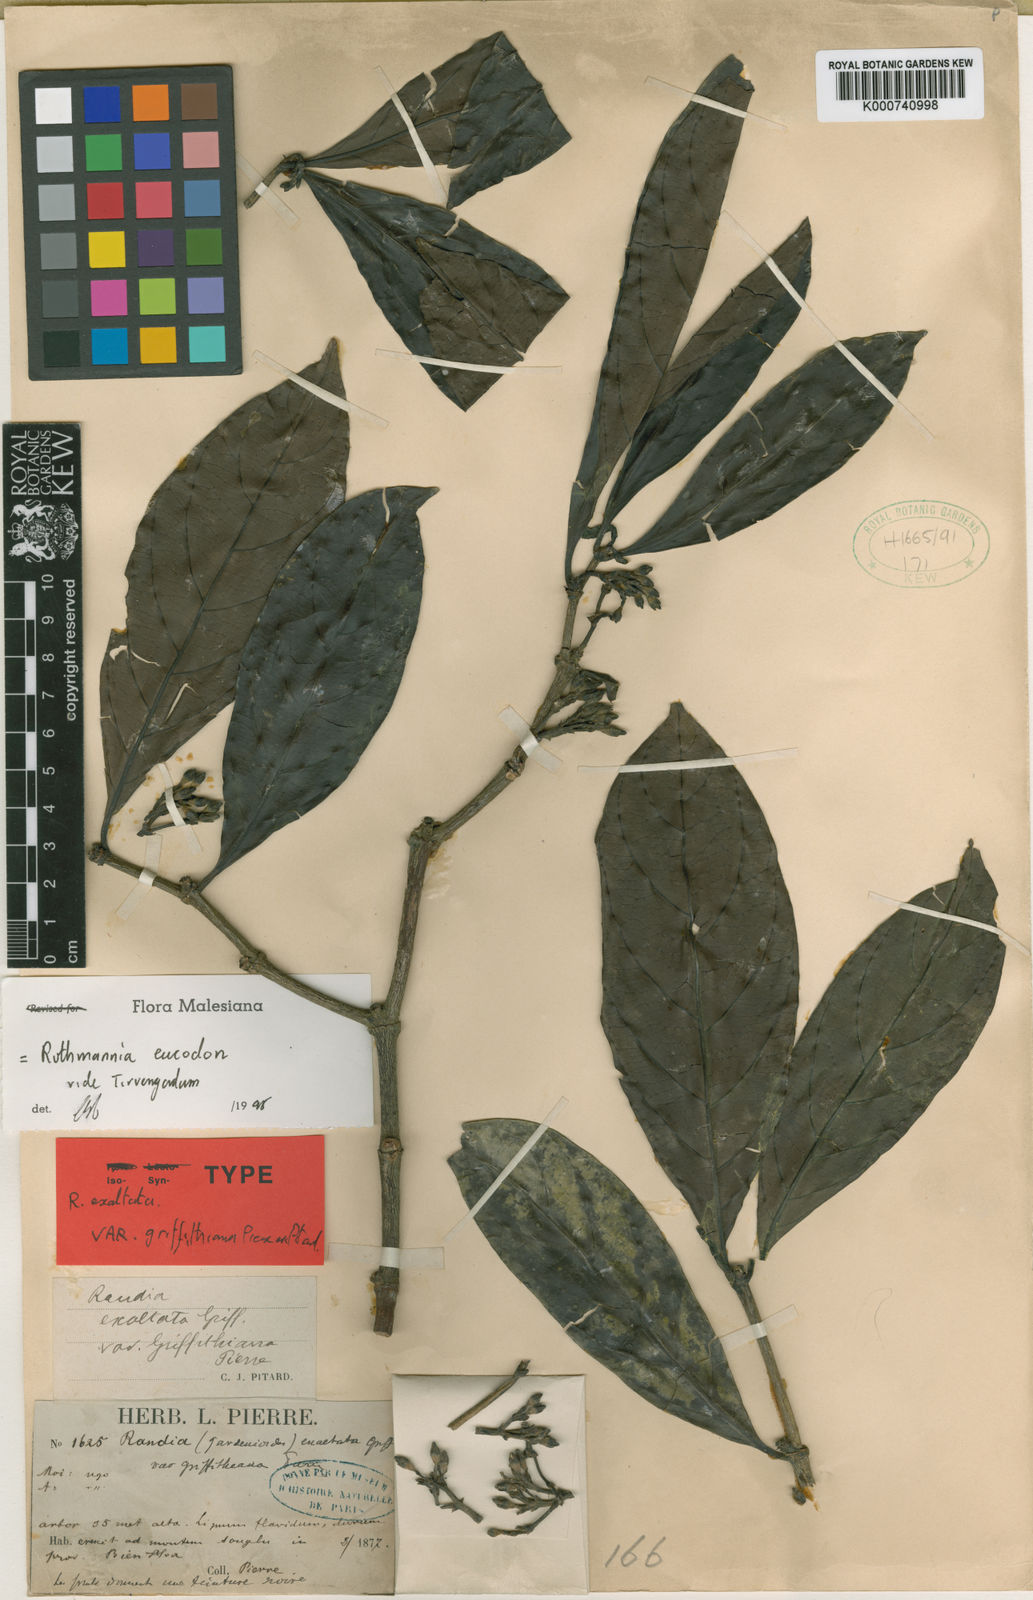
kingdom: Plantae
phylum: Tracheophyta
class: Magnoliopsida
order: Gentianales
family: Rubiaceae
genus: Ridsdalea
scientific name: Ridsdalea eucodon
